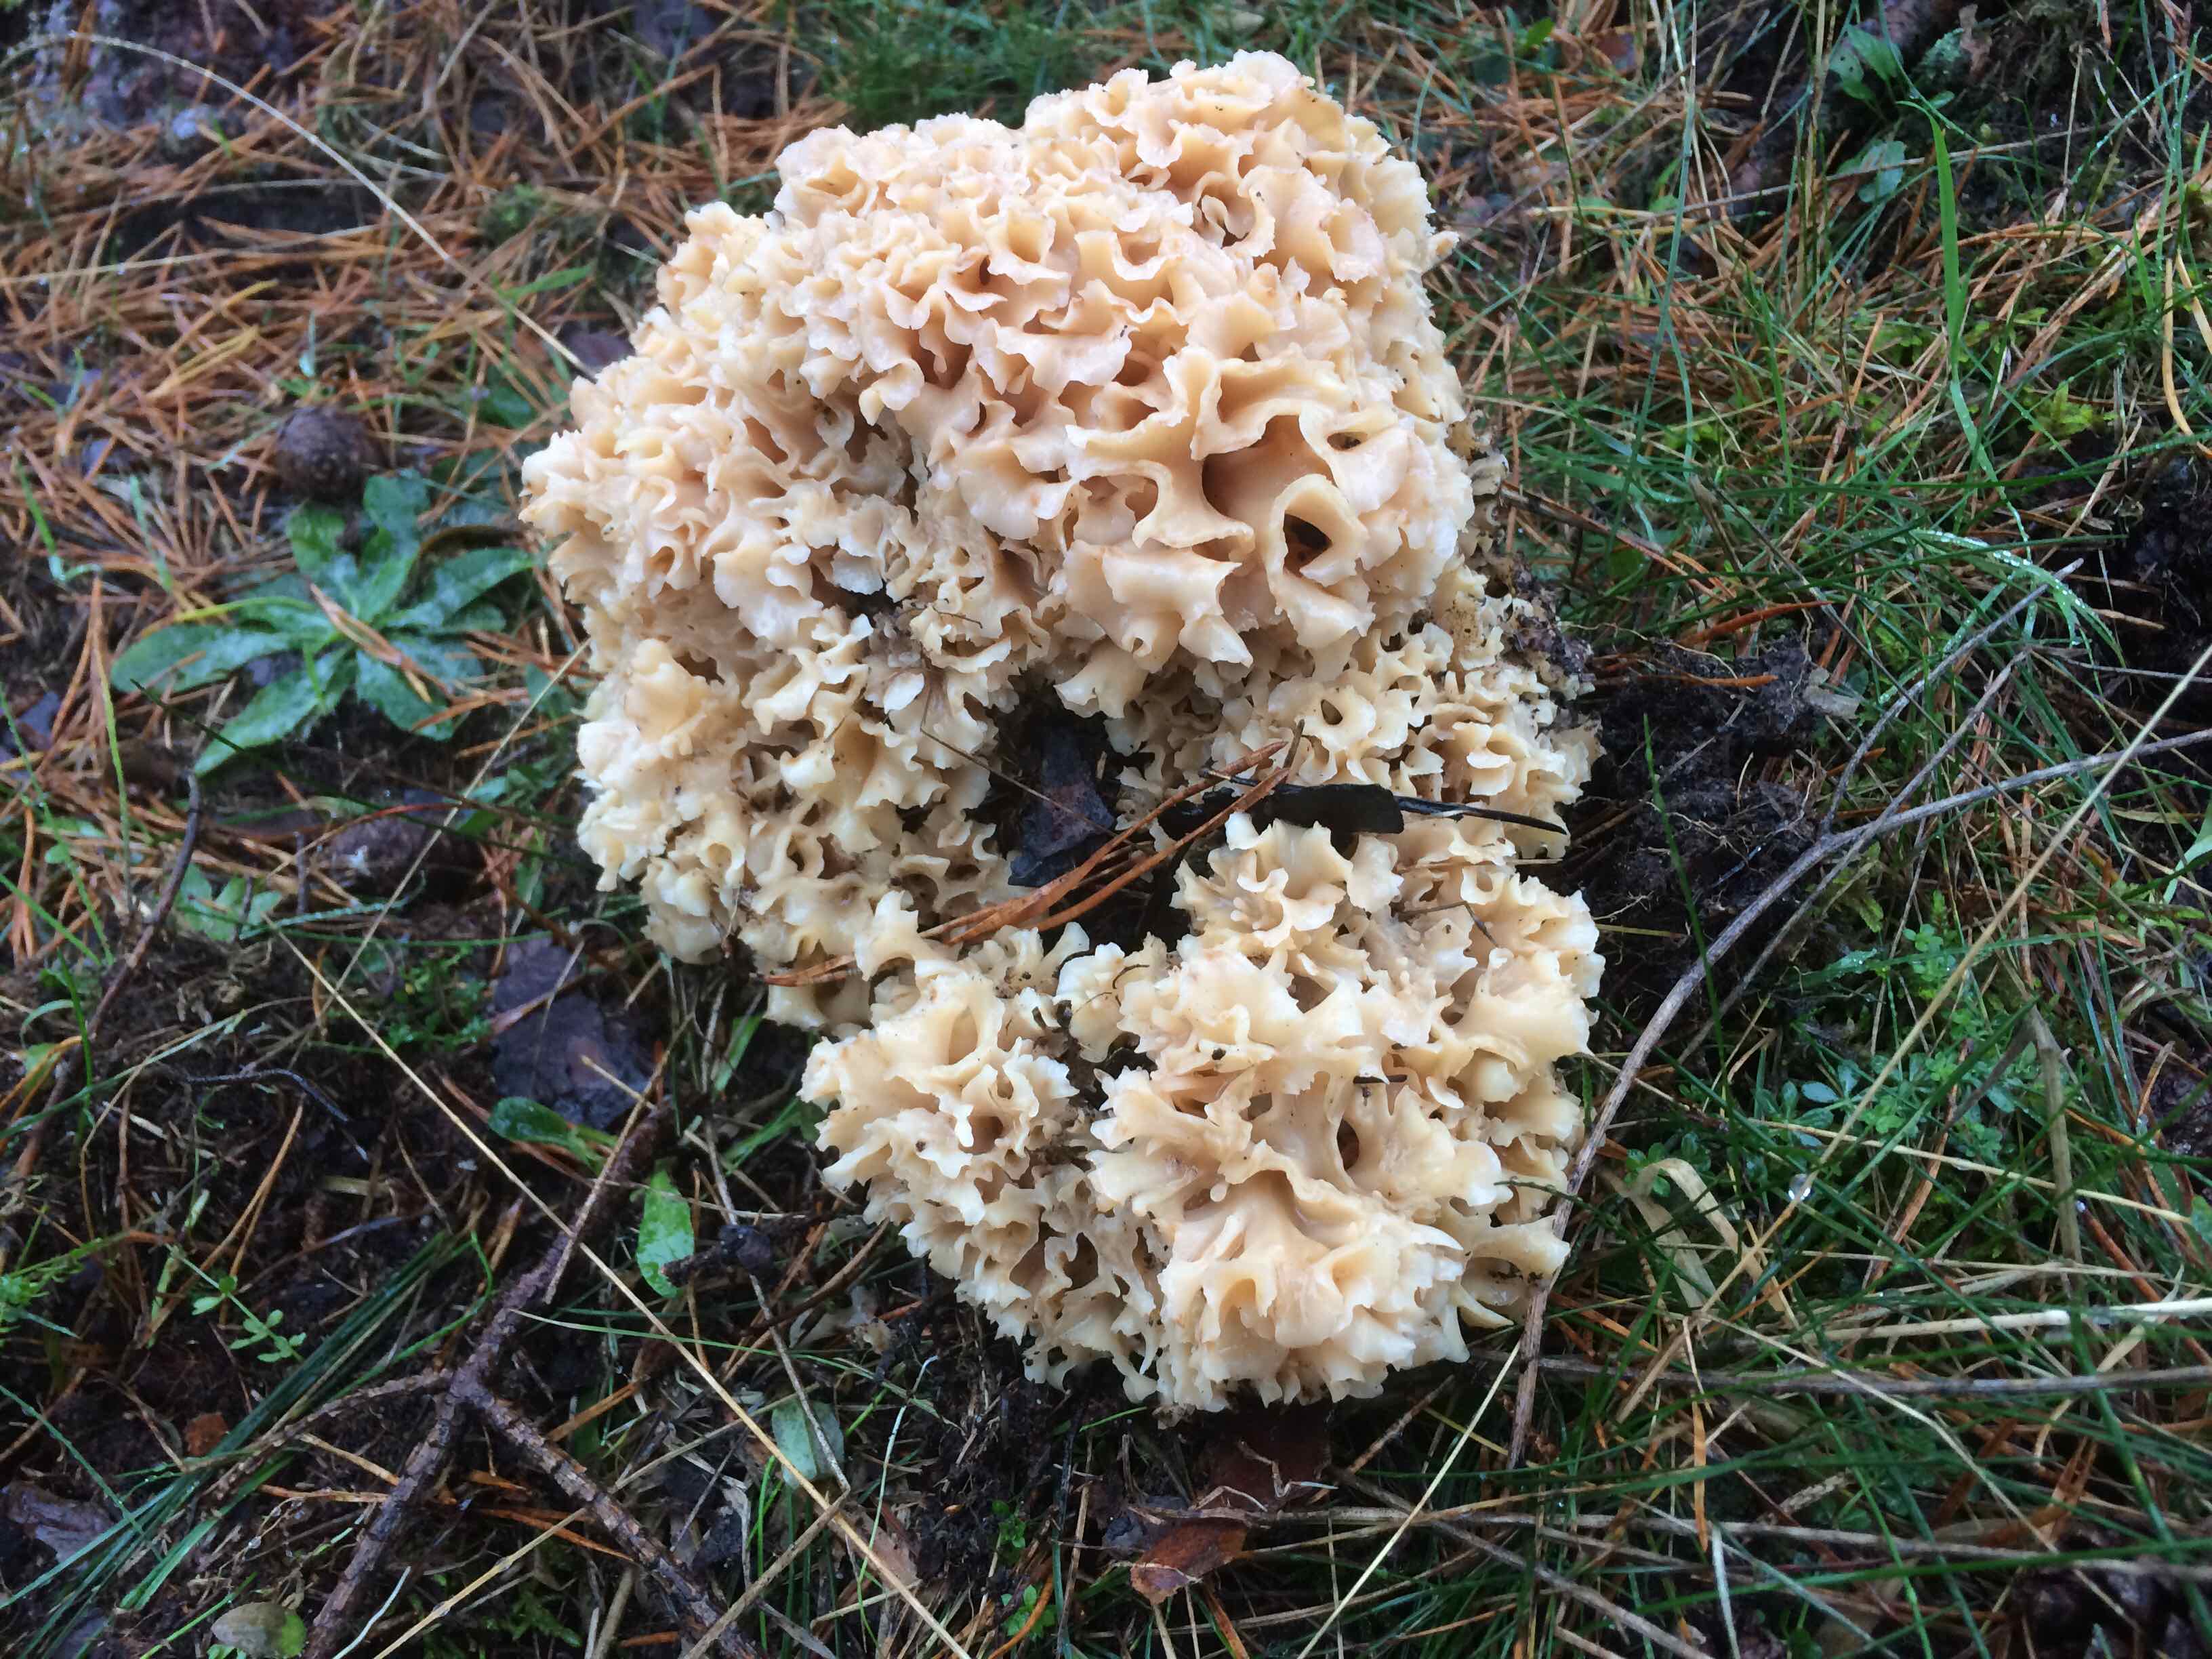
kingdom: Fungi
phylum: Basidiomycota
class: Agaricomycetes
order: Polyporales
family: Sparassidaceae
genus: Sparassis
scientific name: Sparassis crispa
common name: kruset blomkålssvamp
